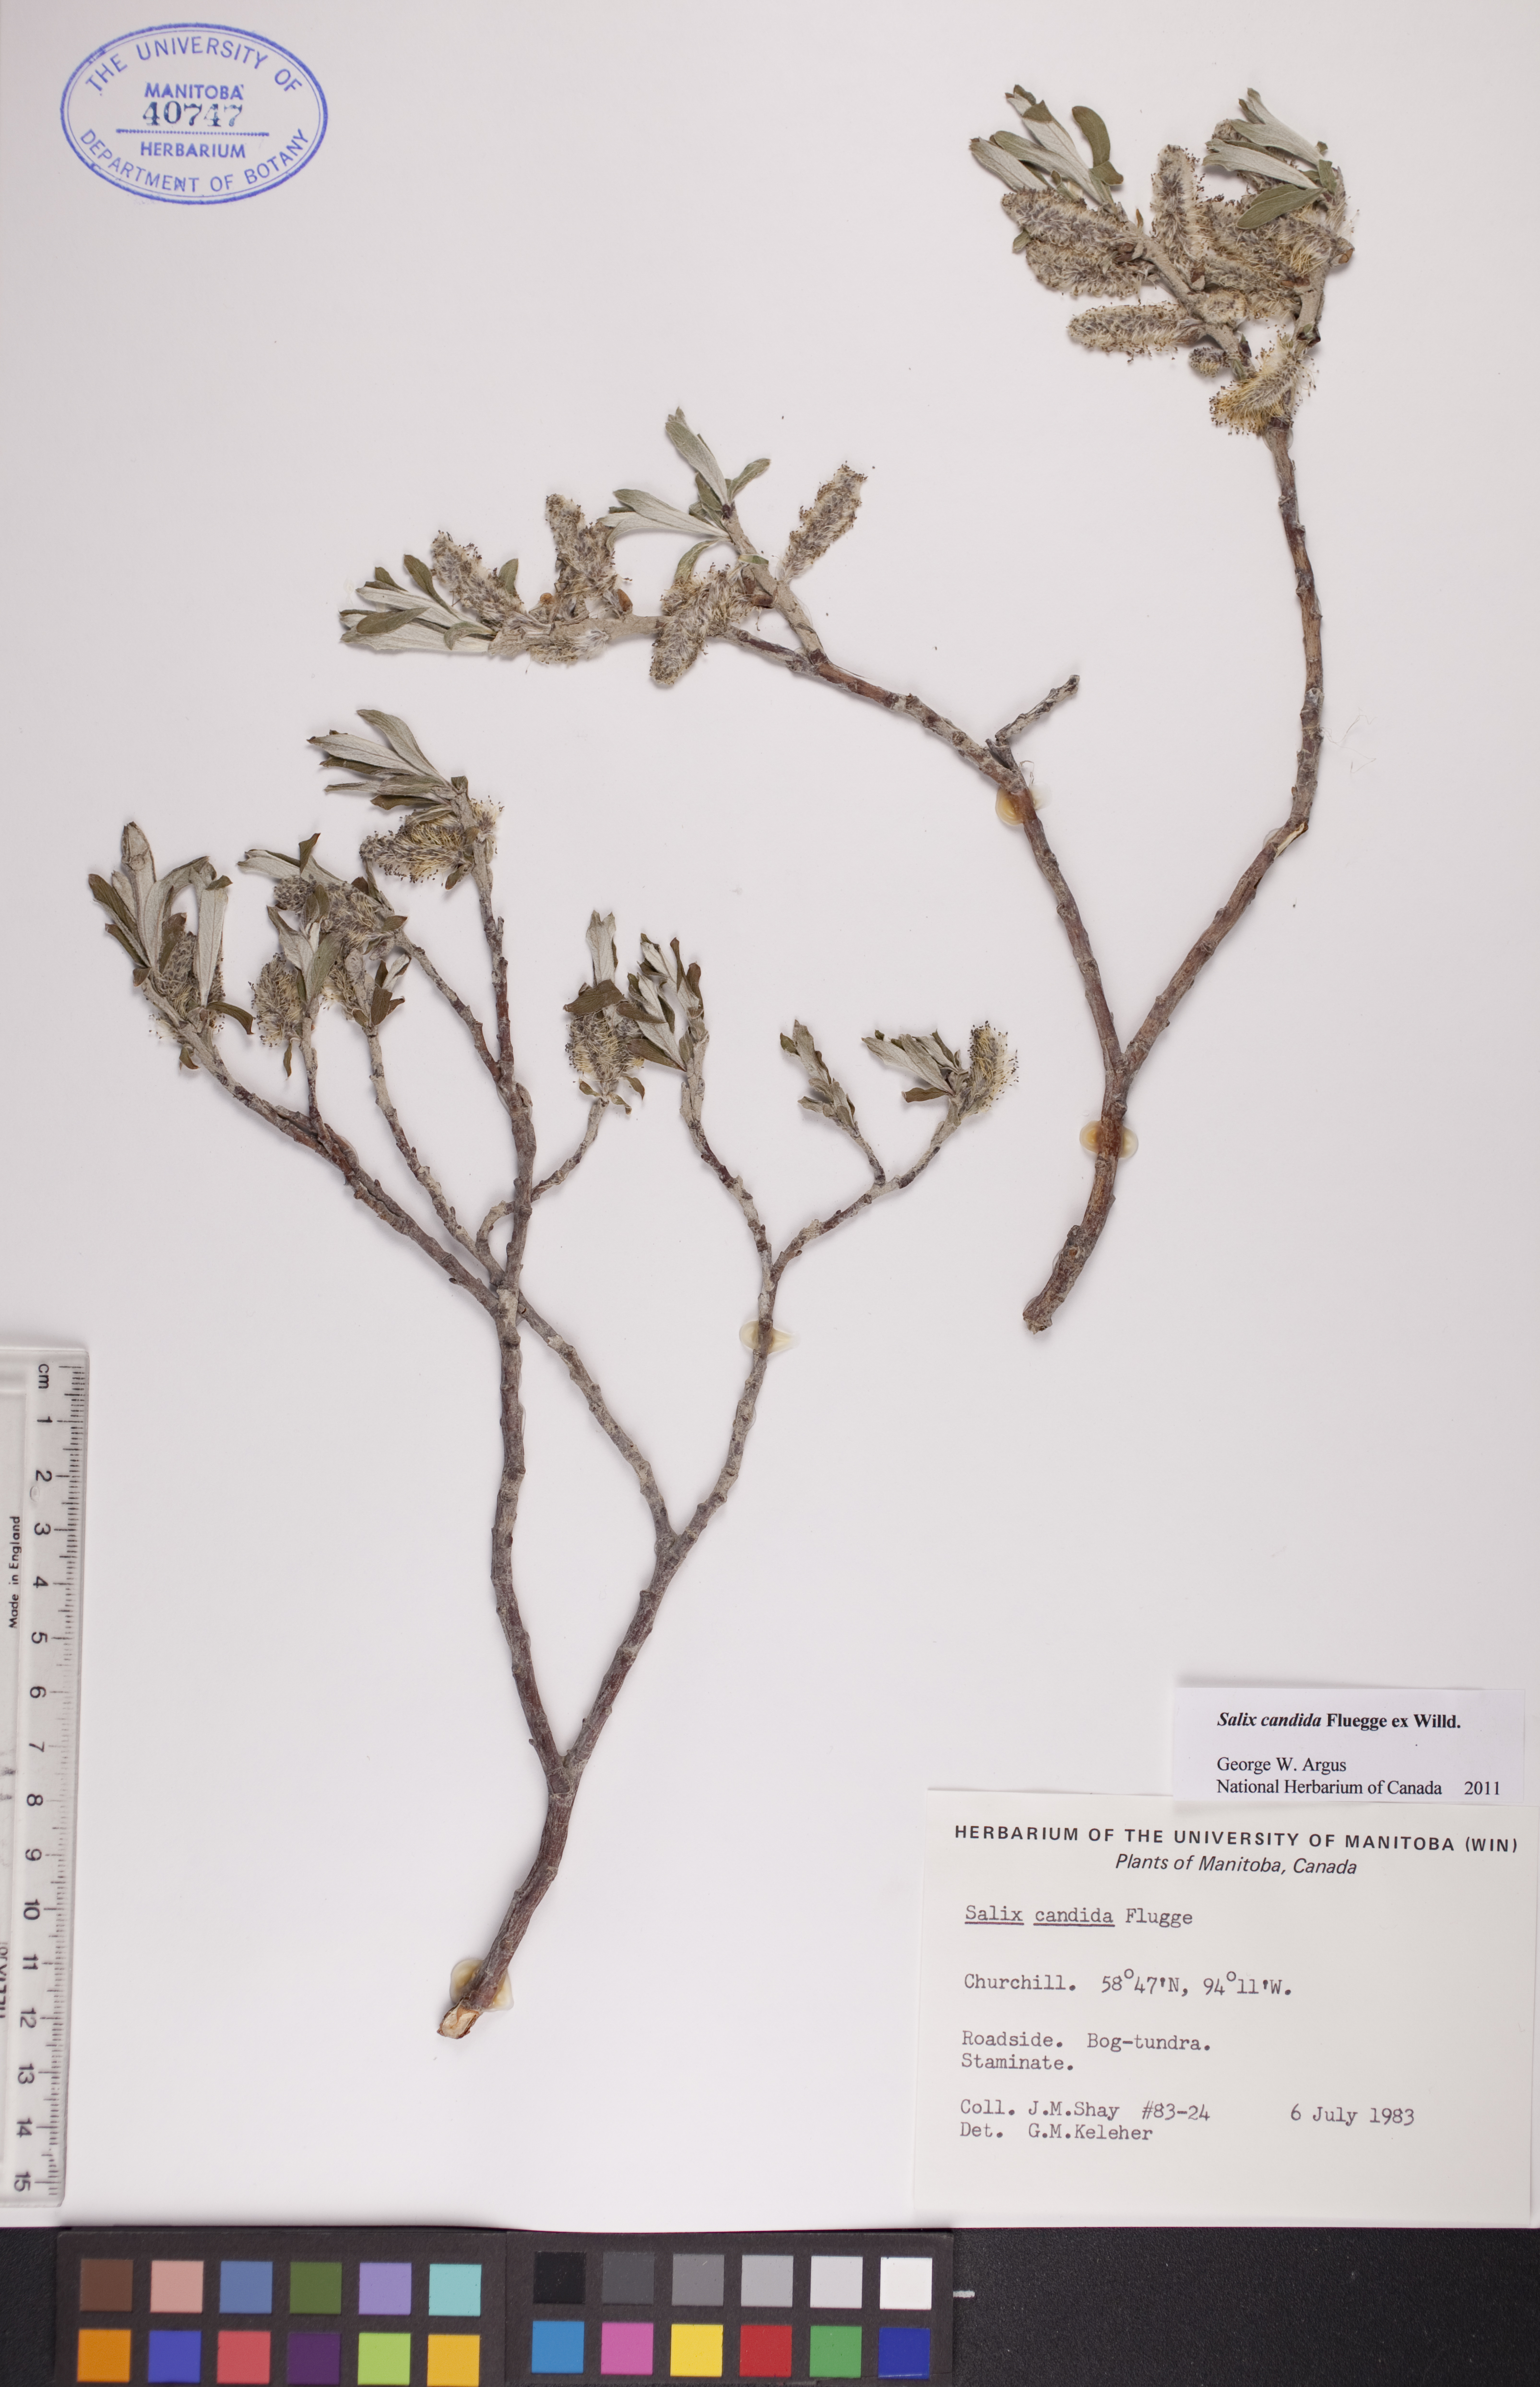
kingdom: Plantae
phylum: Tracheophyta
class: Magnoliopsida
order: Malpighiales
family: Salicaceae
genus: Salix
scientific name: Salix candida
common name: Hoary willow
